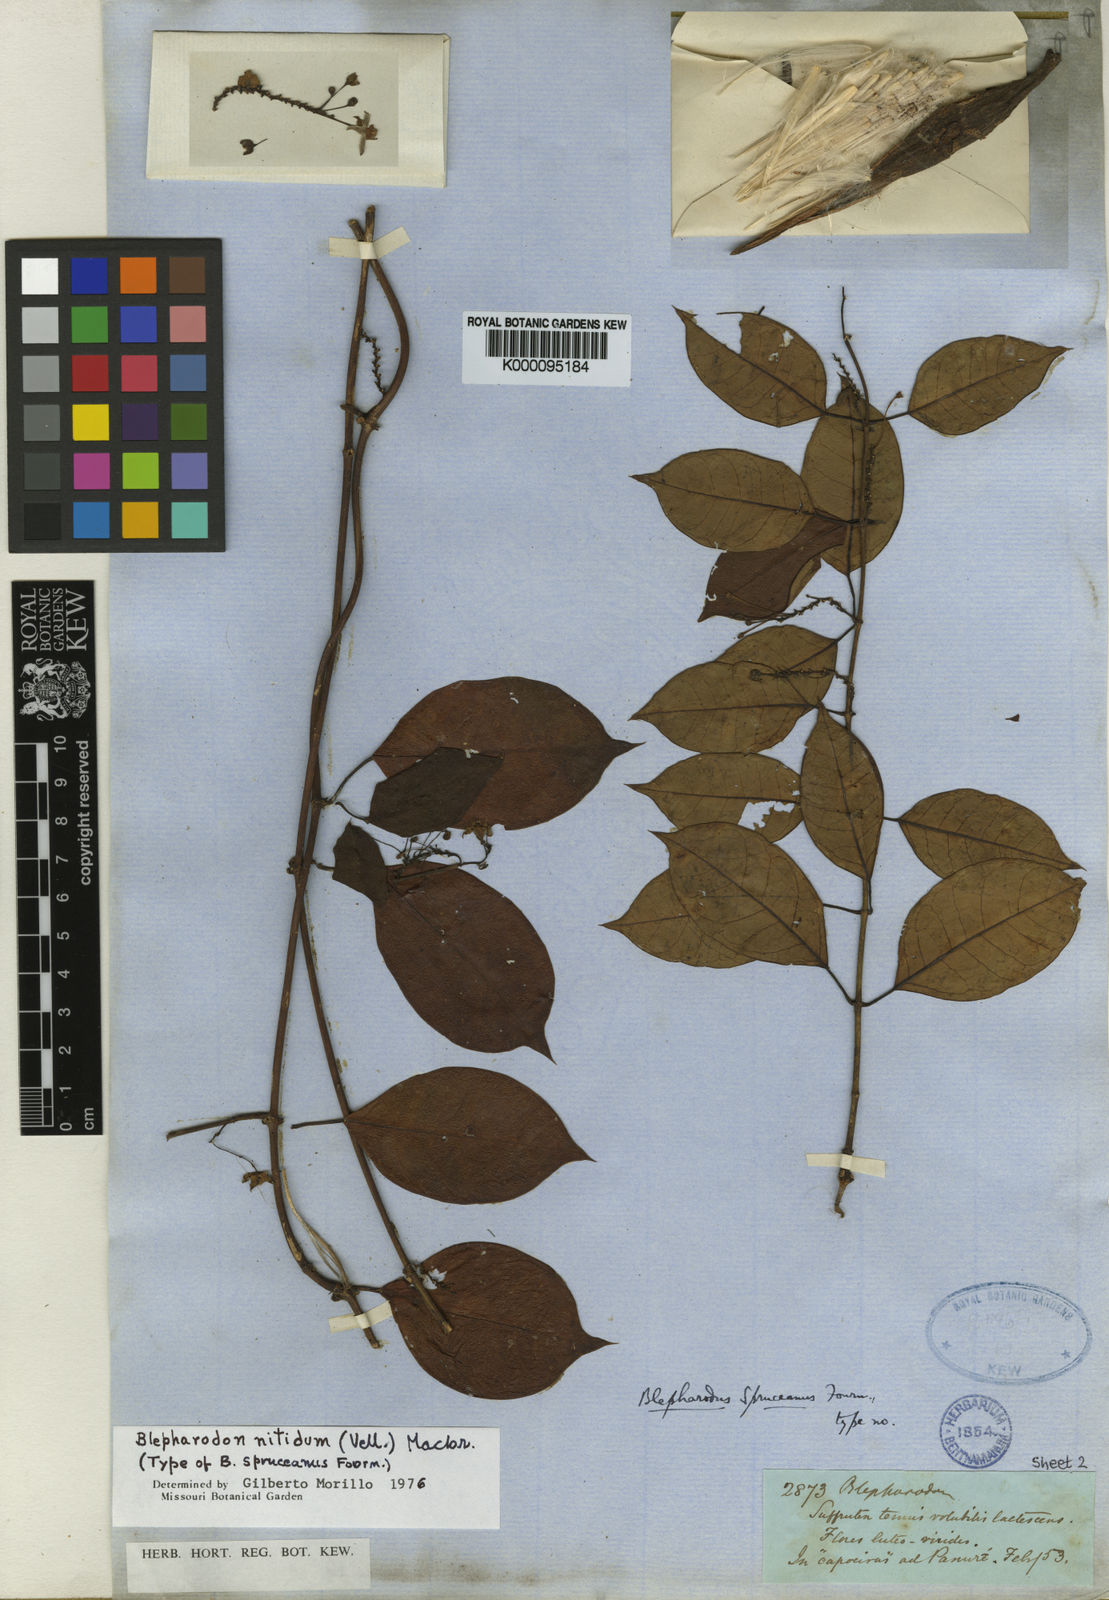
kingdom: Plantae
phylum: Tracheophyta
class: Magnoliopsida
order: Gentianales
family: Apocynaceae
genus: Blepharodon
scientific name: Blepharodon pictum
